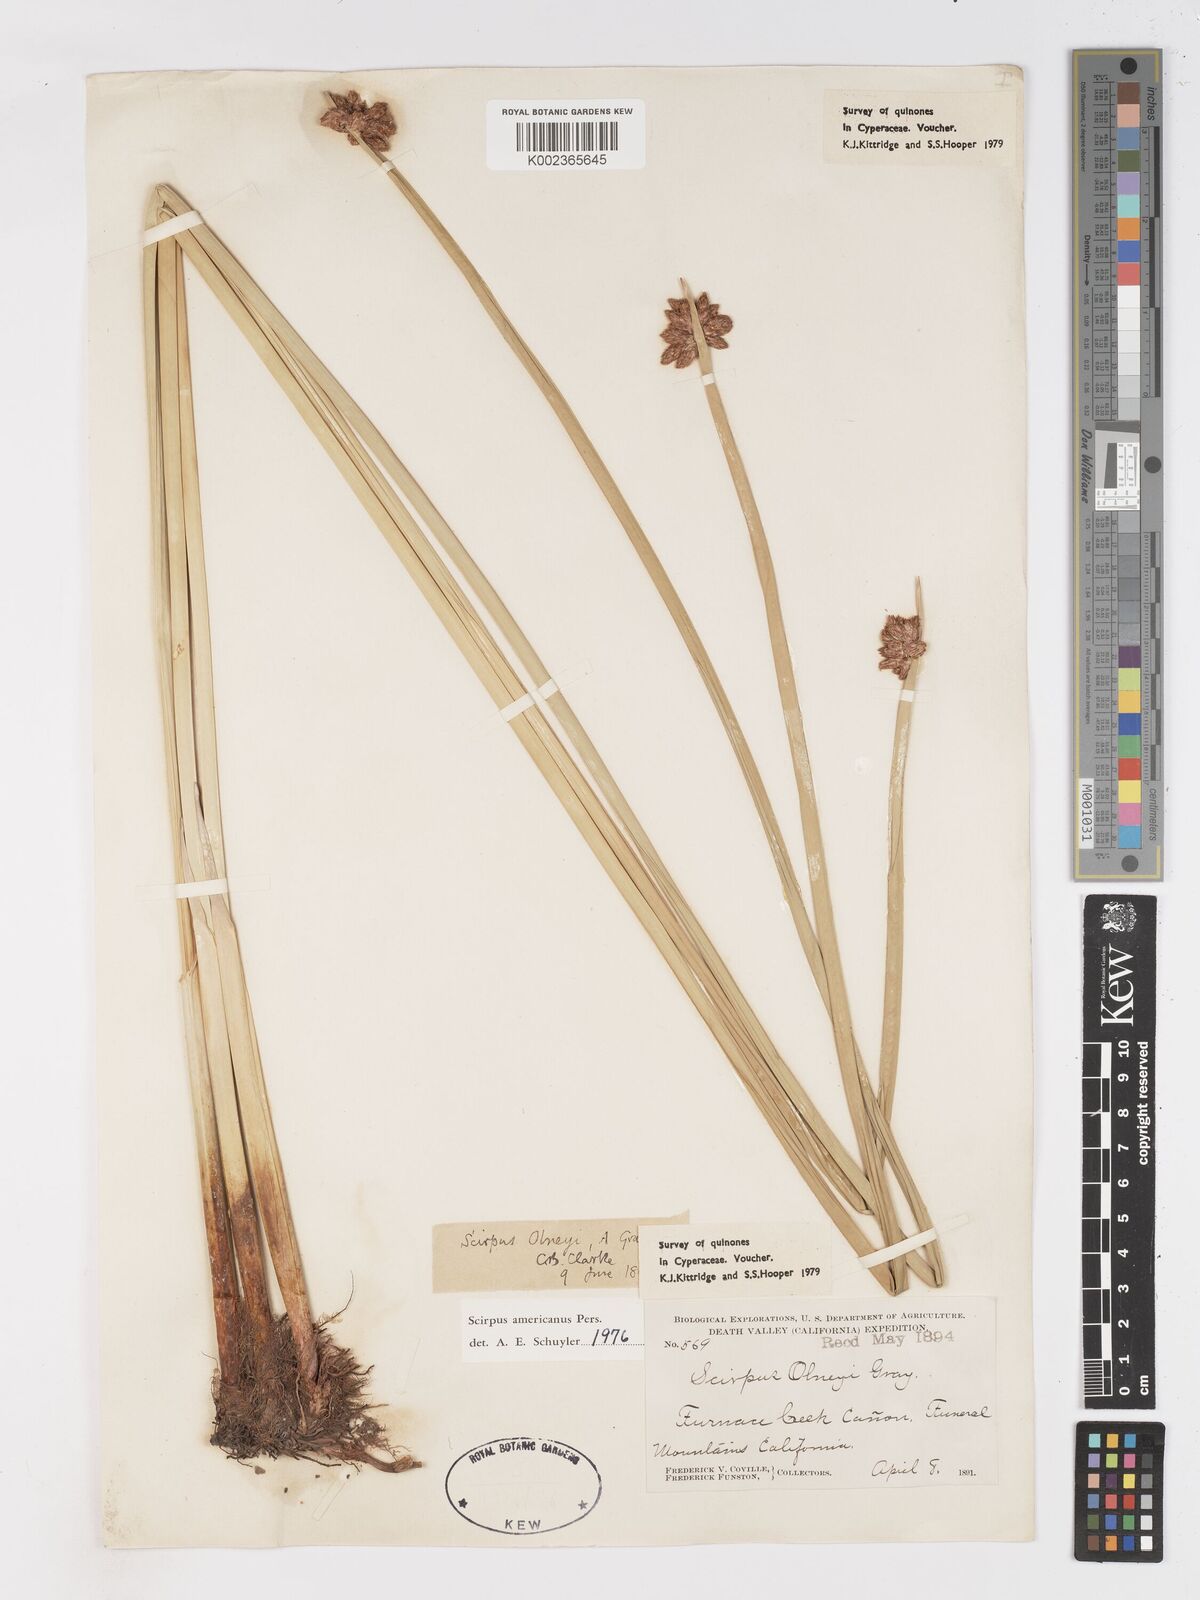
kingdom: Plantae
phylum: Tracheophyta
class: Liliopsida
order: Poales
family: Cyperaceae
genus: Schoenoplectus
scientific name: Schoenoplectus americanus
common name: American three-square bulrush
